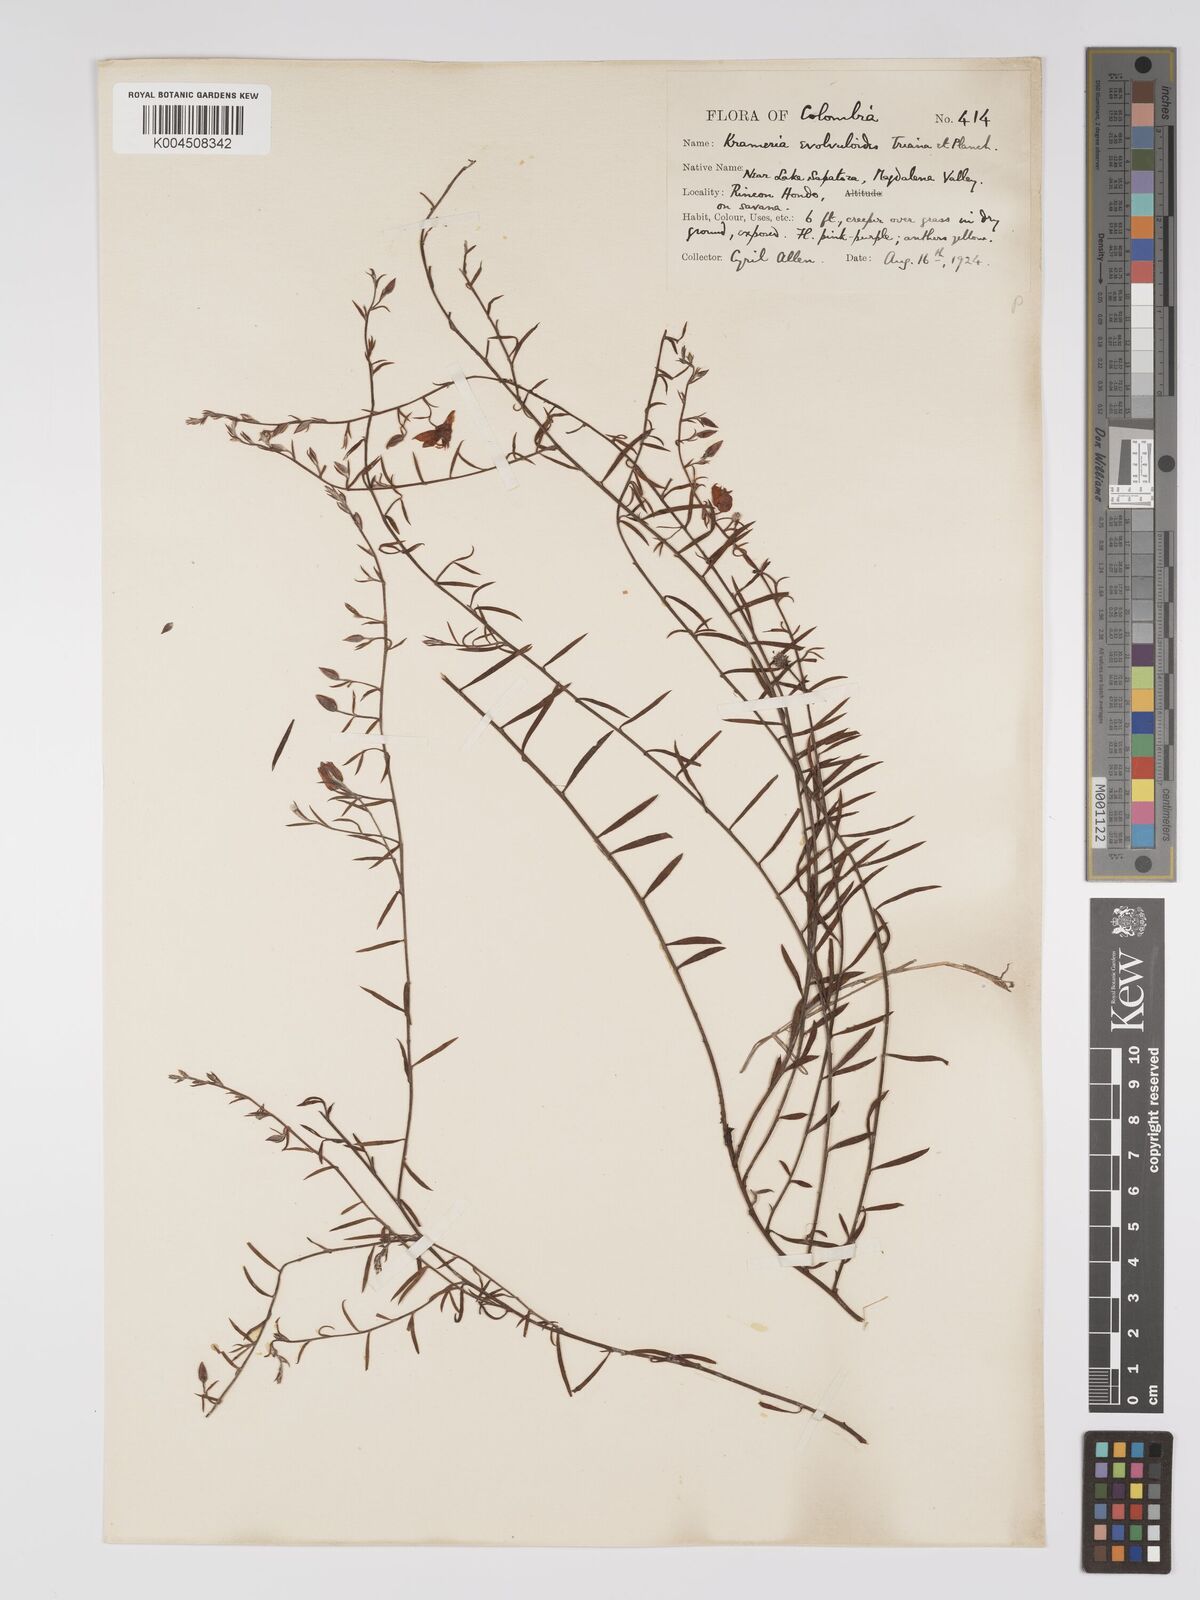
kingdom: Plantae
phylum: Tracheophyta
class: Magnoliopsida
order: Zygophyllales
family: Krameriaceae
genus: Krameria
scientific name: Krameria spartioides
